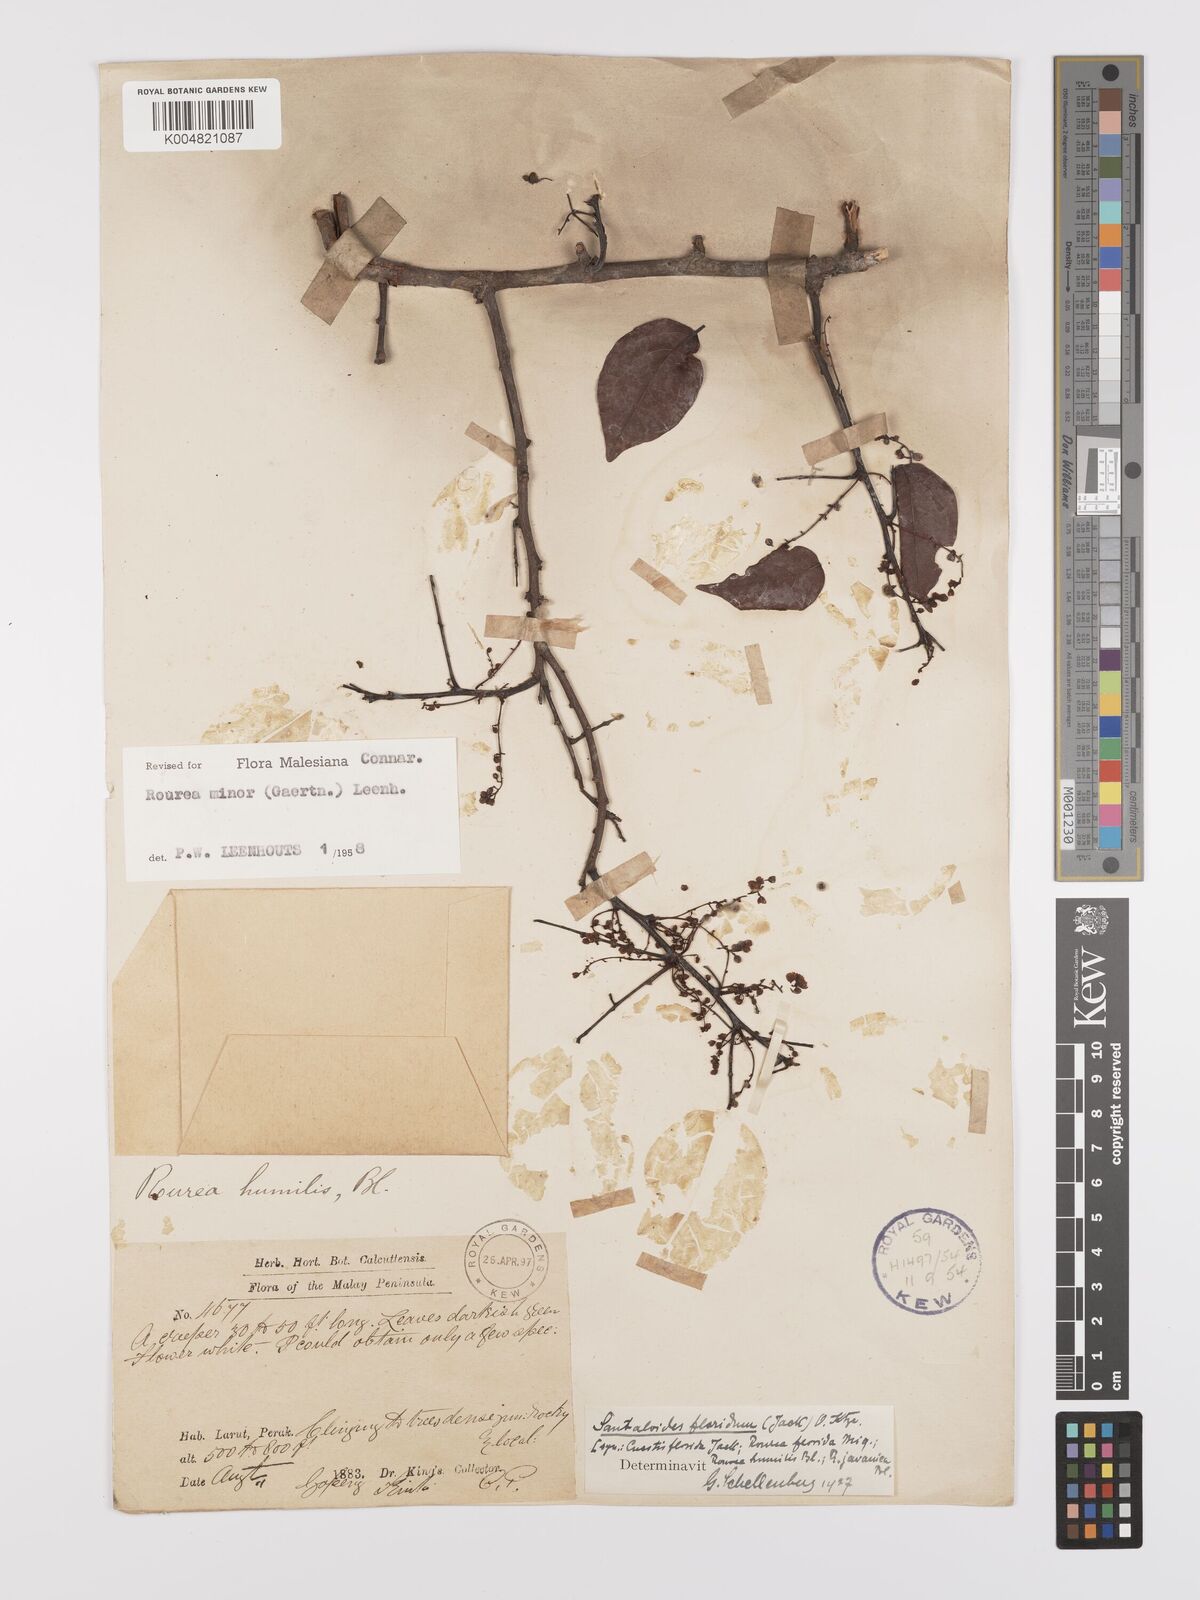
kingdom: Plantae
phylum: Tracheophyta
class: Magnoliopsida
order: Oxalidales
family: Connaraceae
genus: Rourea
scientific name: Rourea minor
